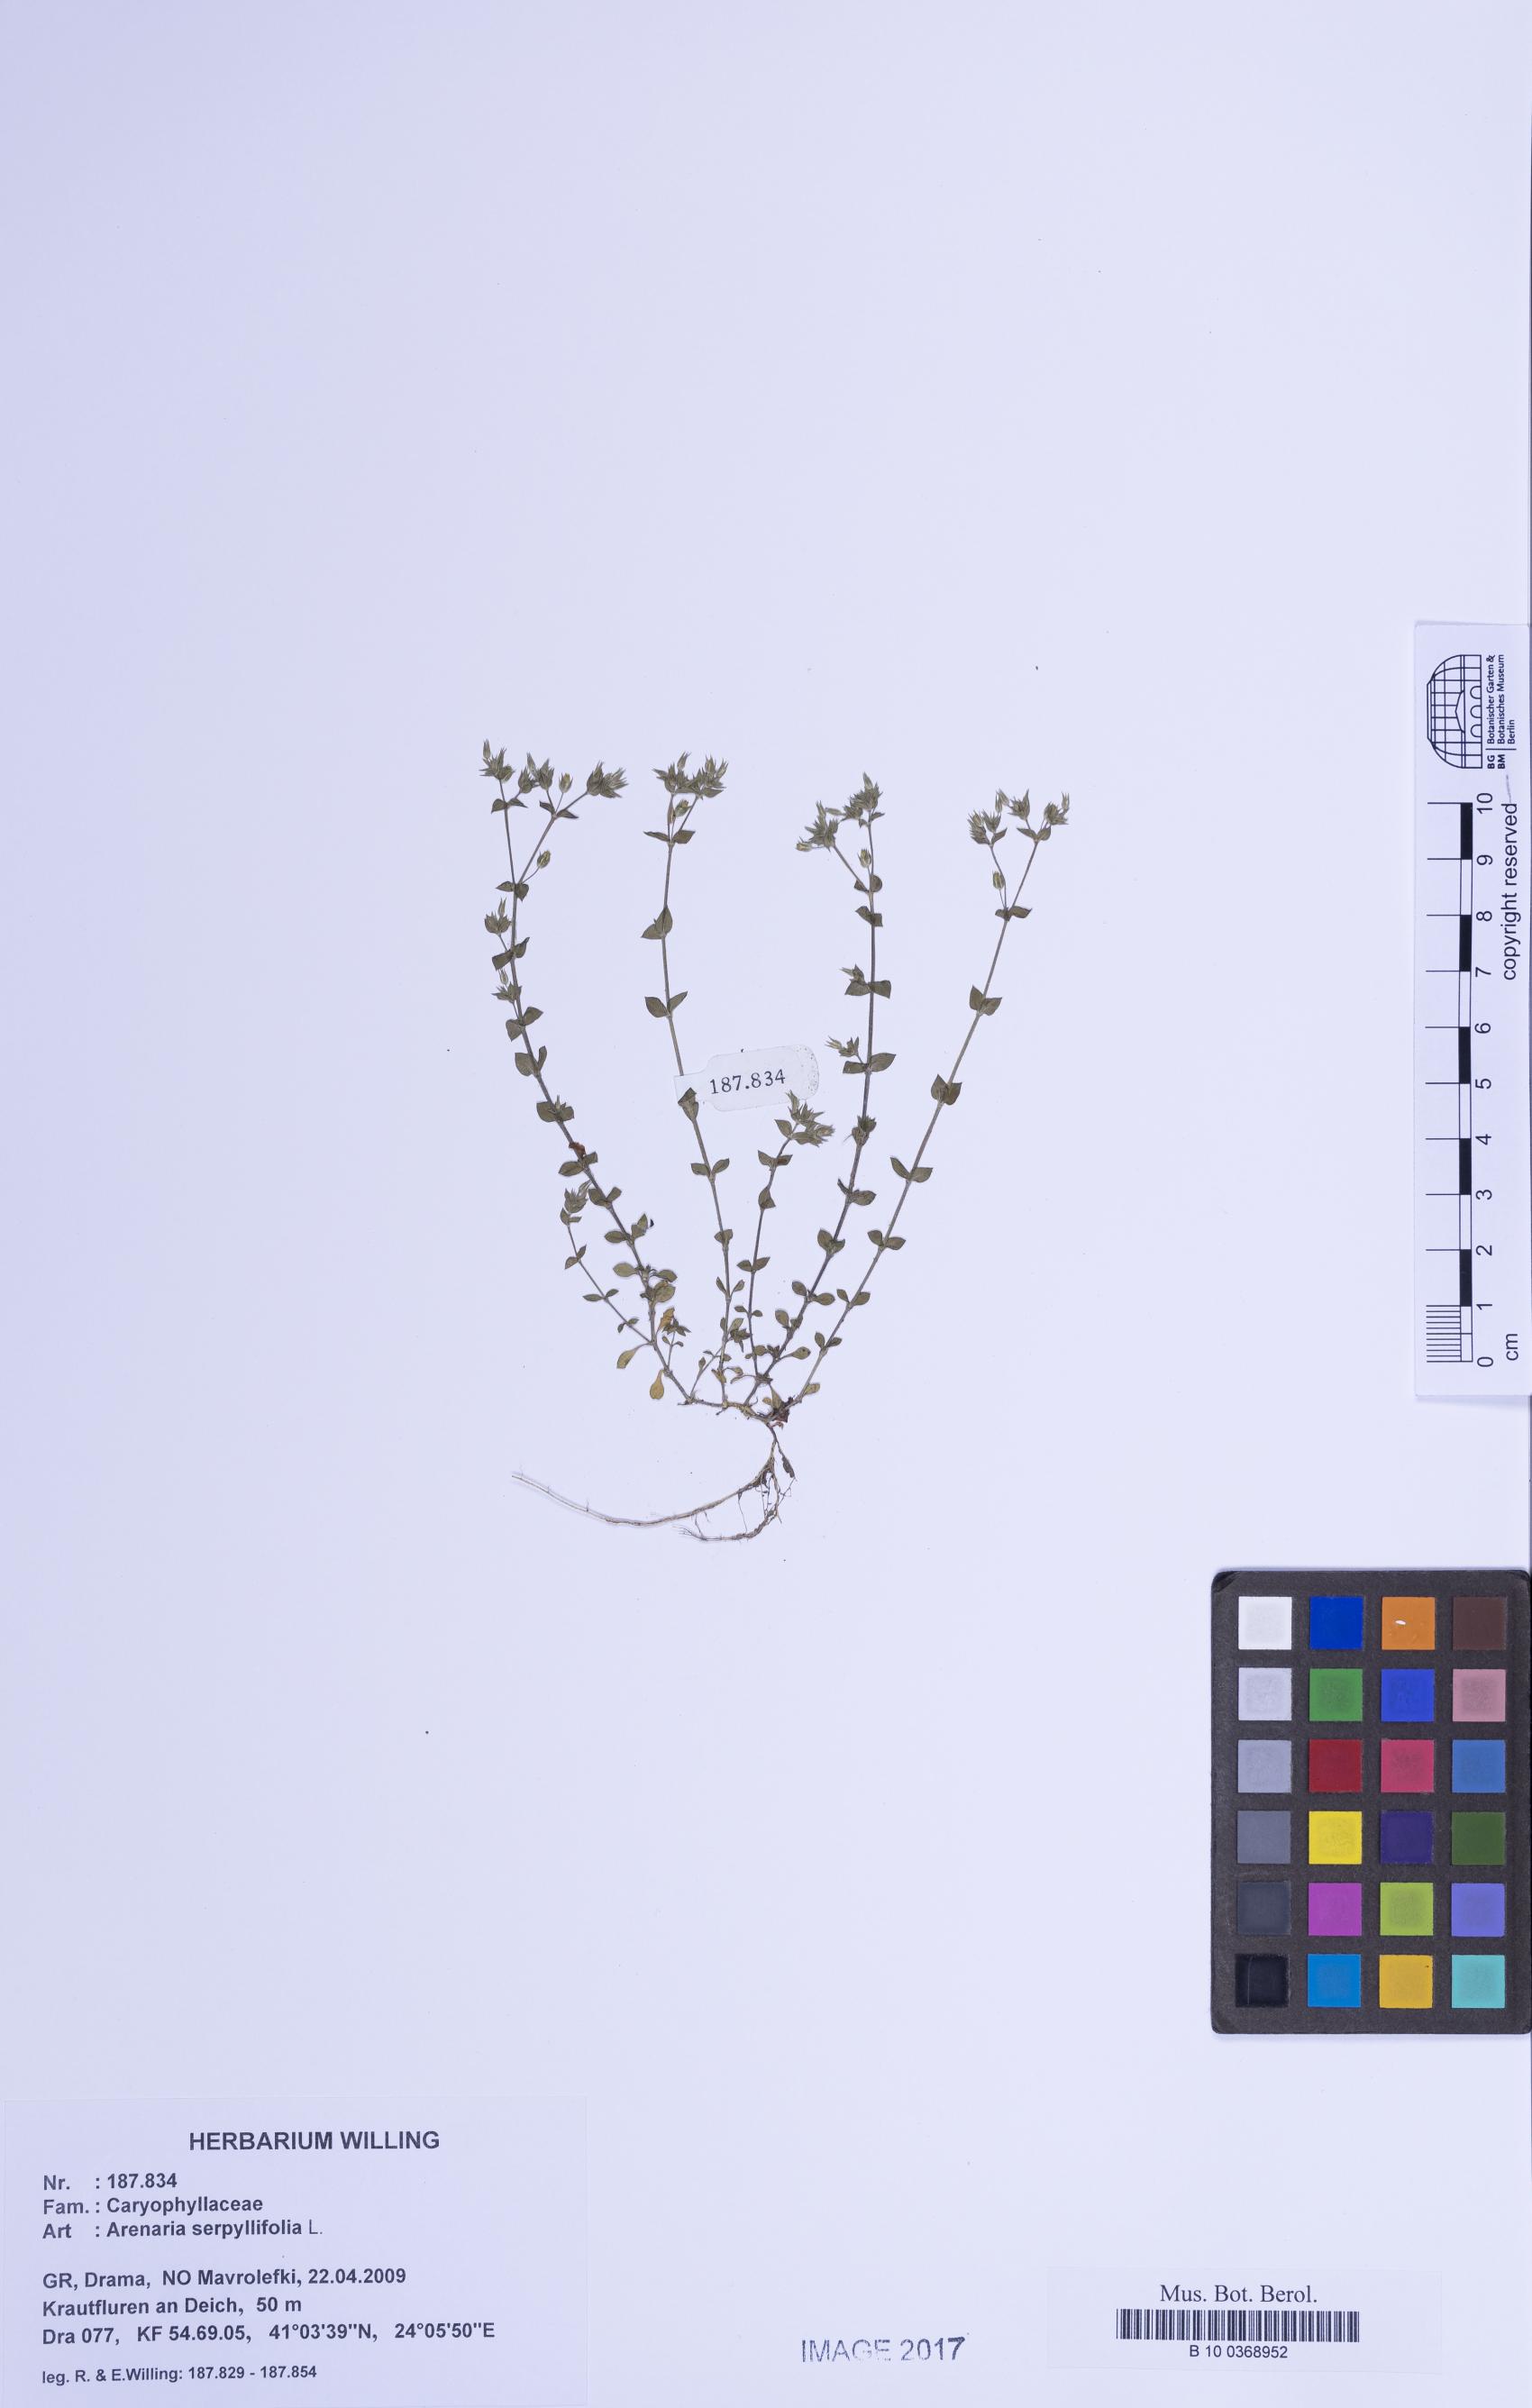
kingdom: Plantae
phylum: Tracheophyta
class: Magnoliopsida
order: Caryophyllales
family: Caryophyllaceae
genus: Arenaria
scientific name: Arenaria serpyllifolia
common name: Thyme-leaved sandwort
